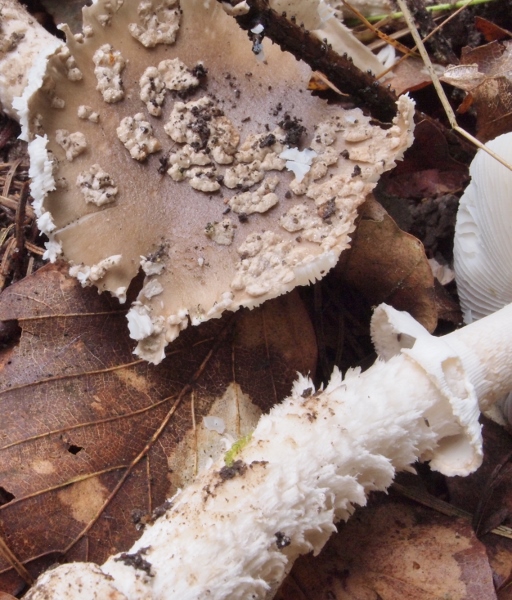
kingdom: Fungi
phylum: Basidiomycota
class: Agaricomycetes
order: Agaricales
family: Amanitaceae
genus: Amanita
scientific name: Amanita
